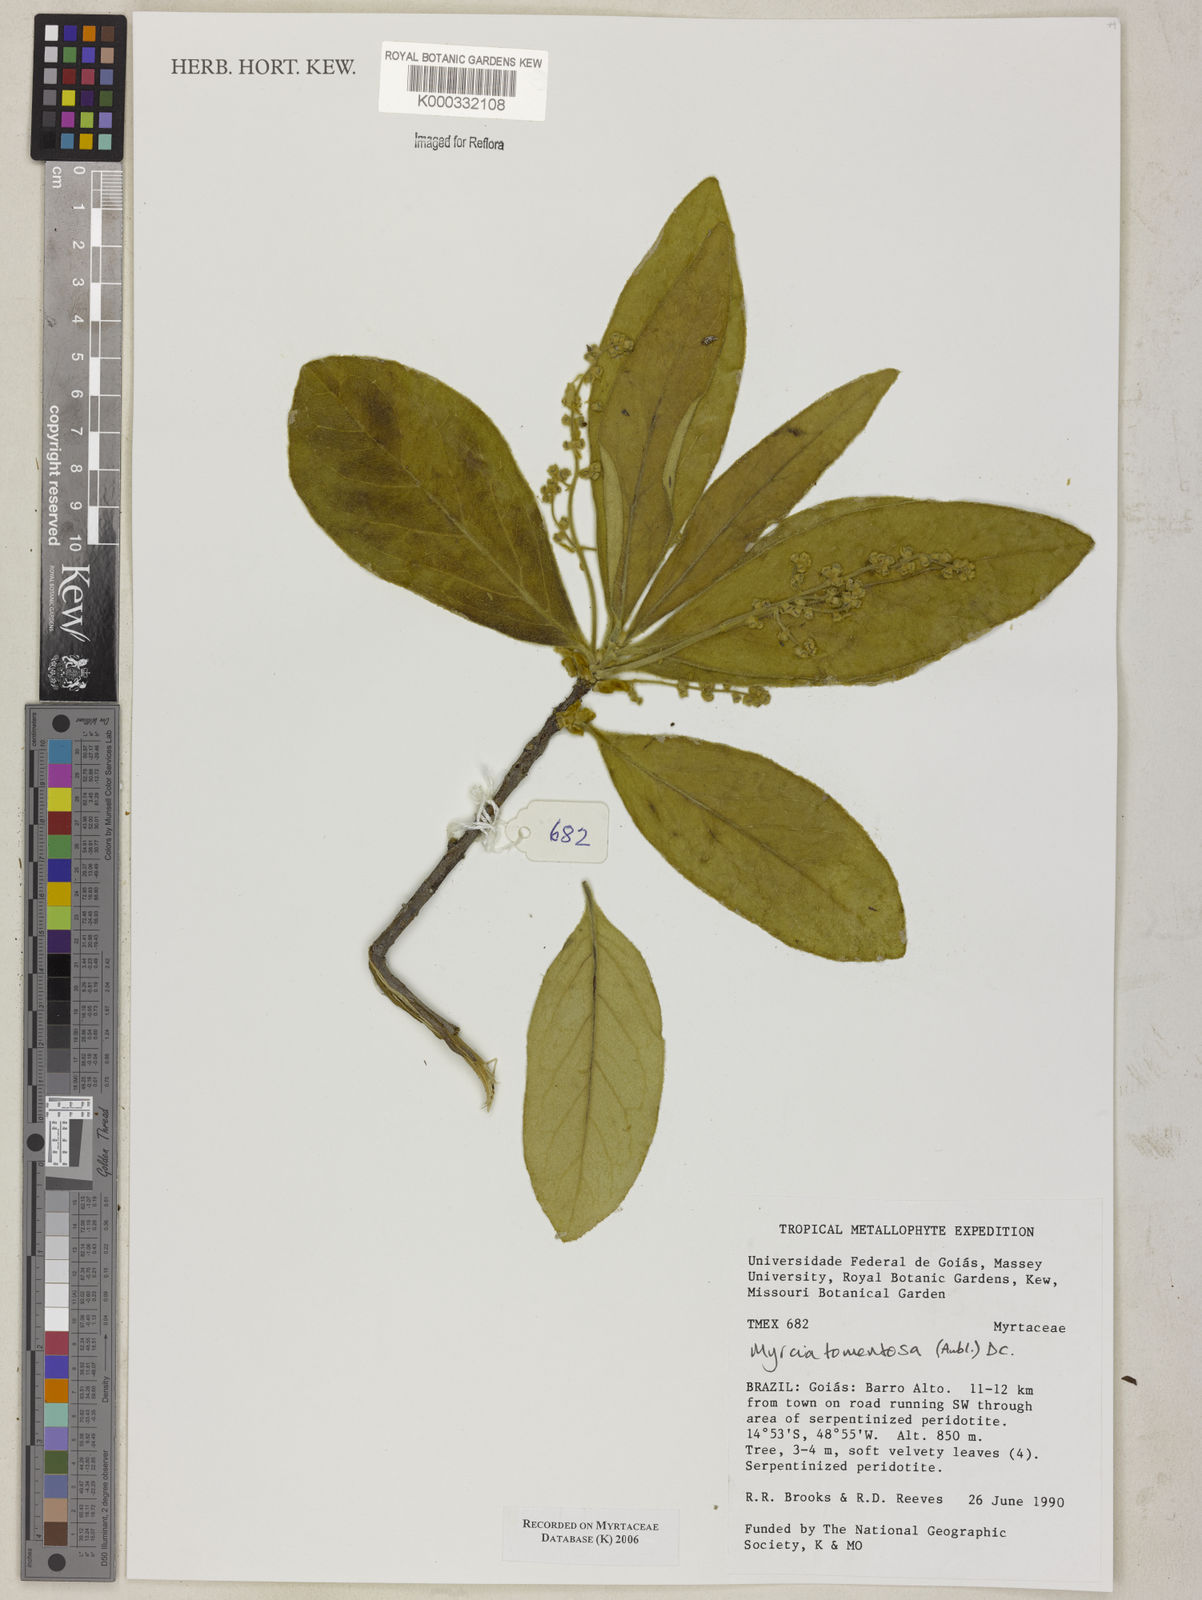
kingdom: Plantae
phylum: Tracheophyta
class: Magnoliopsida
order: Myrtales
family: Myrtaceae
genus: Myrcia
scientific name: Myrcia tomentosa
